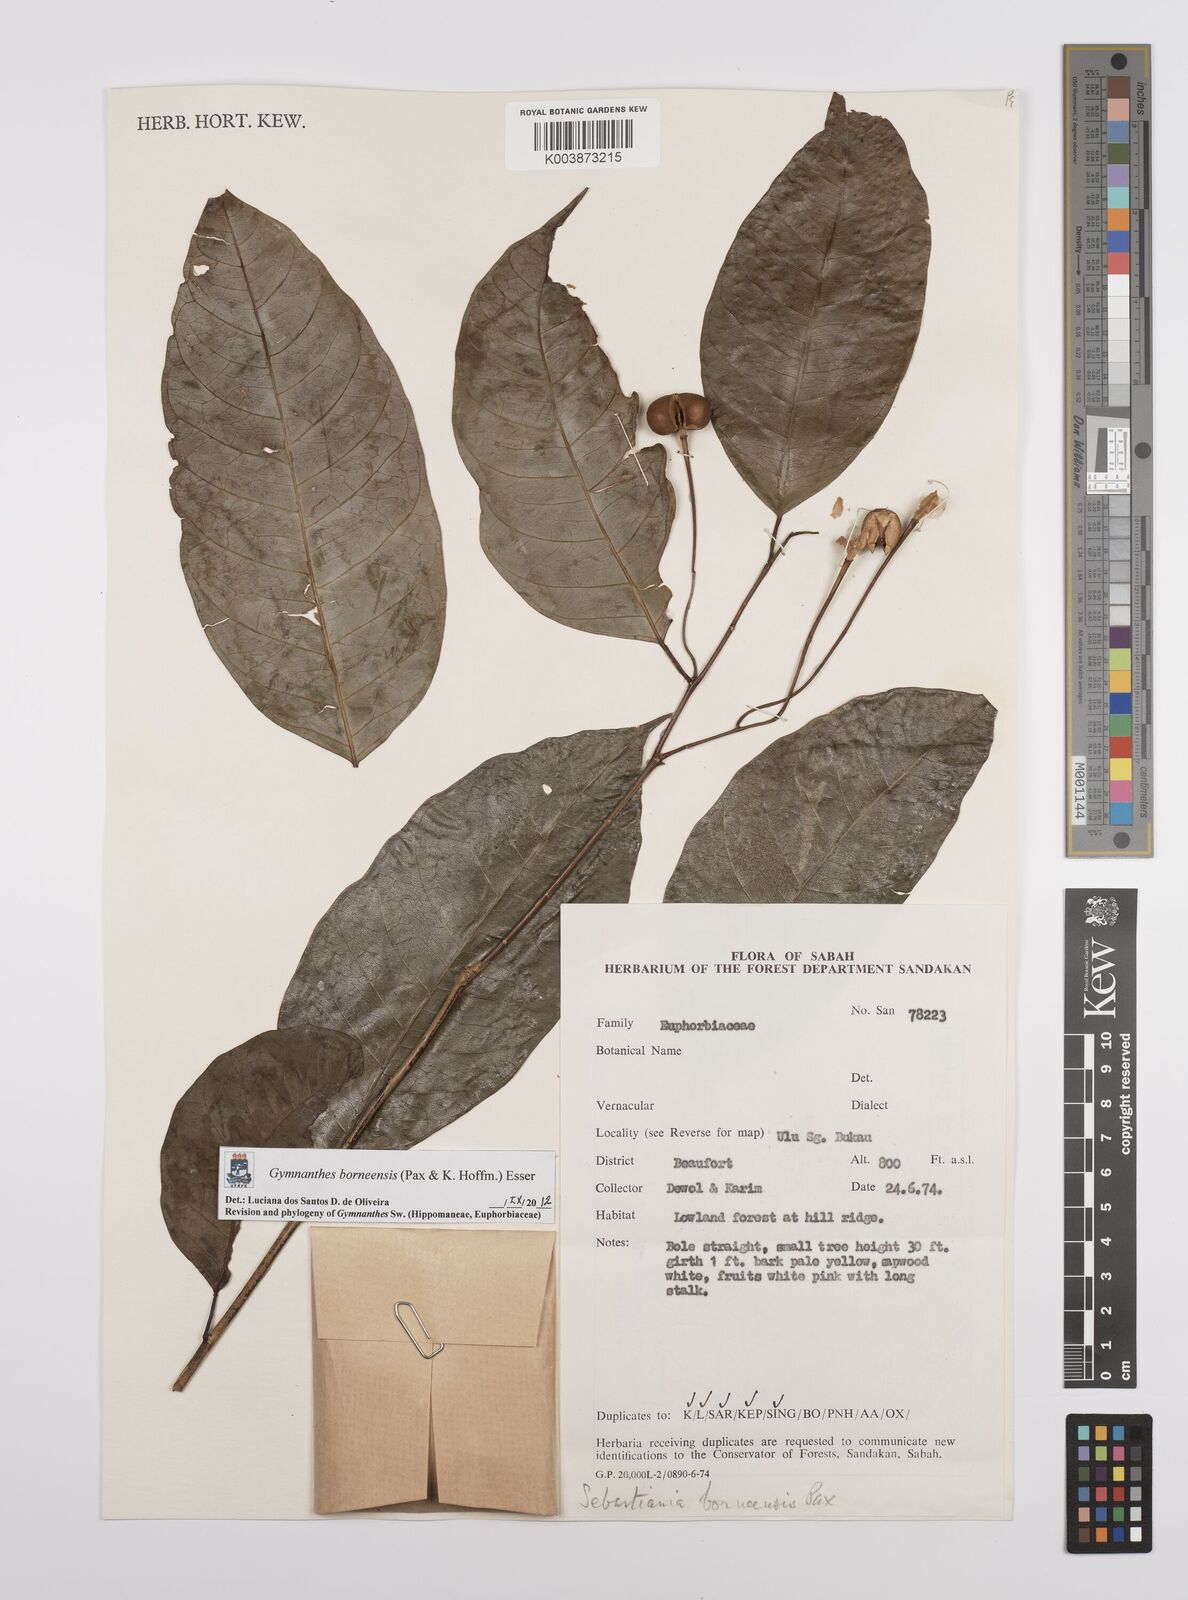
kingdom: Plantae
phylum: Tracheophyta
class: Magnoliopsida
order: Malpighiales
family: Euphorbiaceae
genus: Gymnanthes
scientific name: Gymnanthes borneensis
